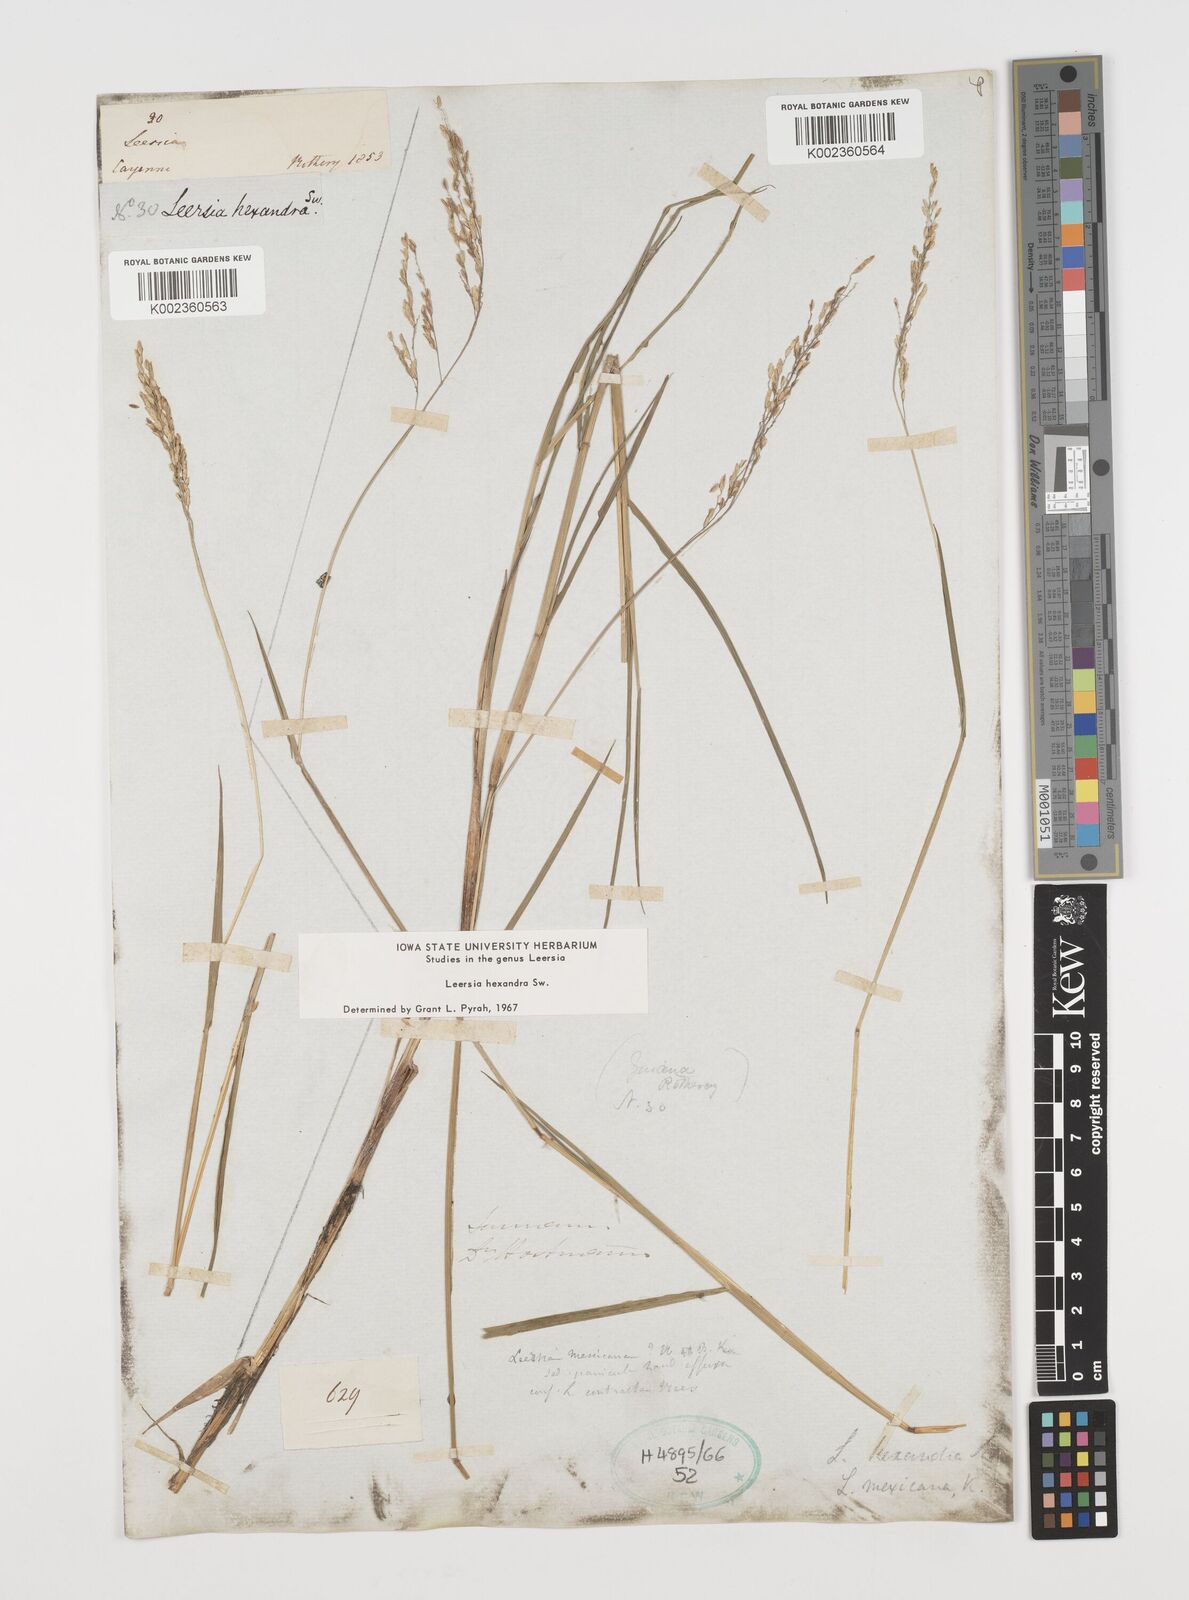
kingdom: Plantae
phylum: Tracheophyta
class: Liliopsida
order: Poales
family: Poaceae
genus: Leersia
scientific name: Leersia hexandra
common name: Southern cut grass
